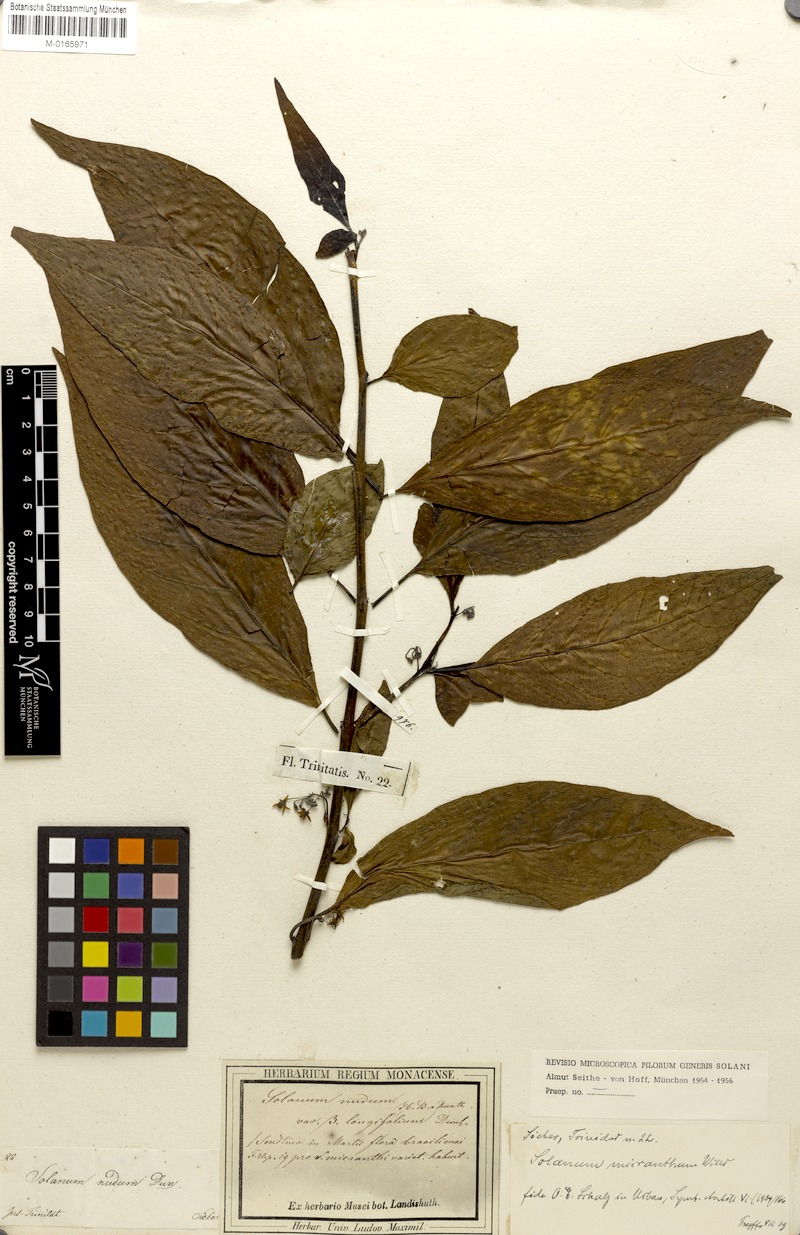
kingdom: Plantae
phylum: Tracheophyta
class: Magnoliopsida
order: Solanales
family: Solanaceae
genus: Solanum
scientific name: Solanum sieberi
